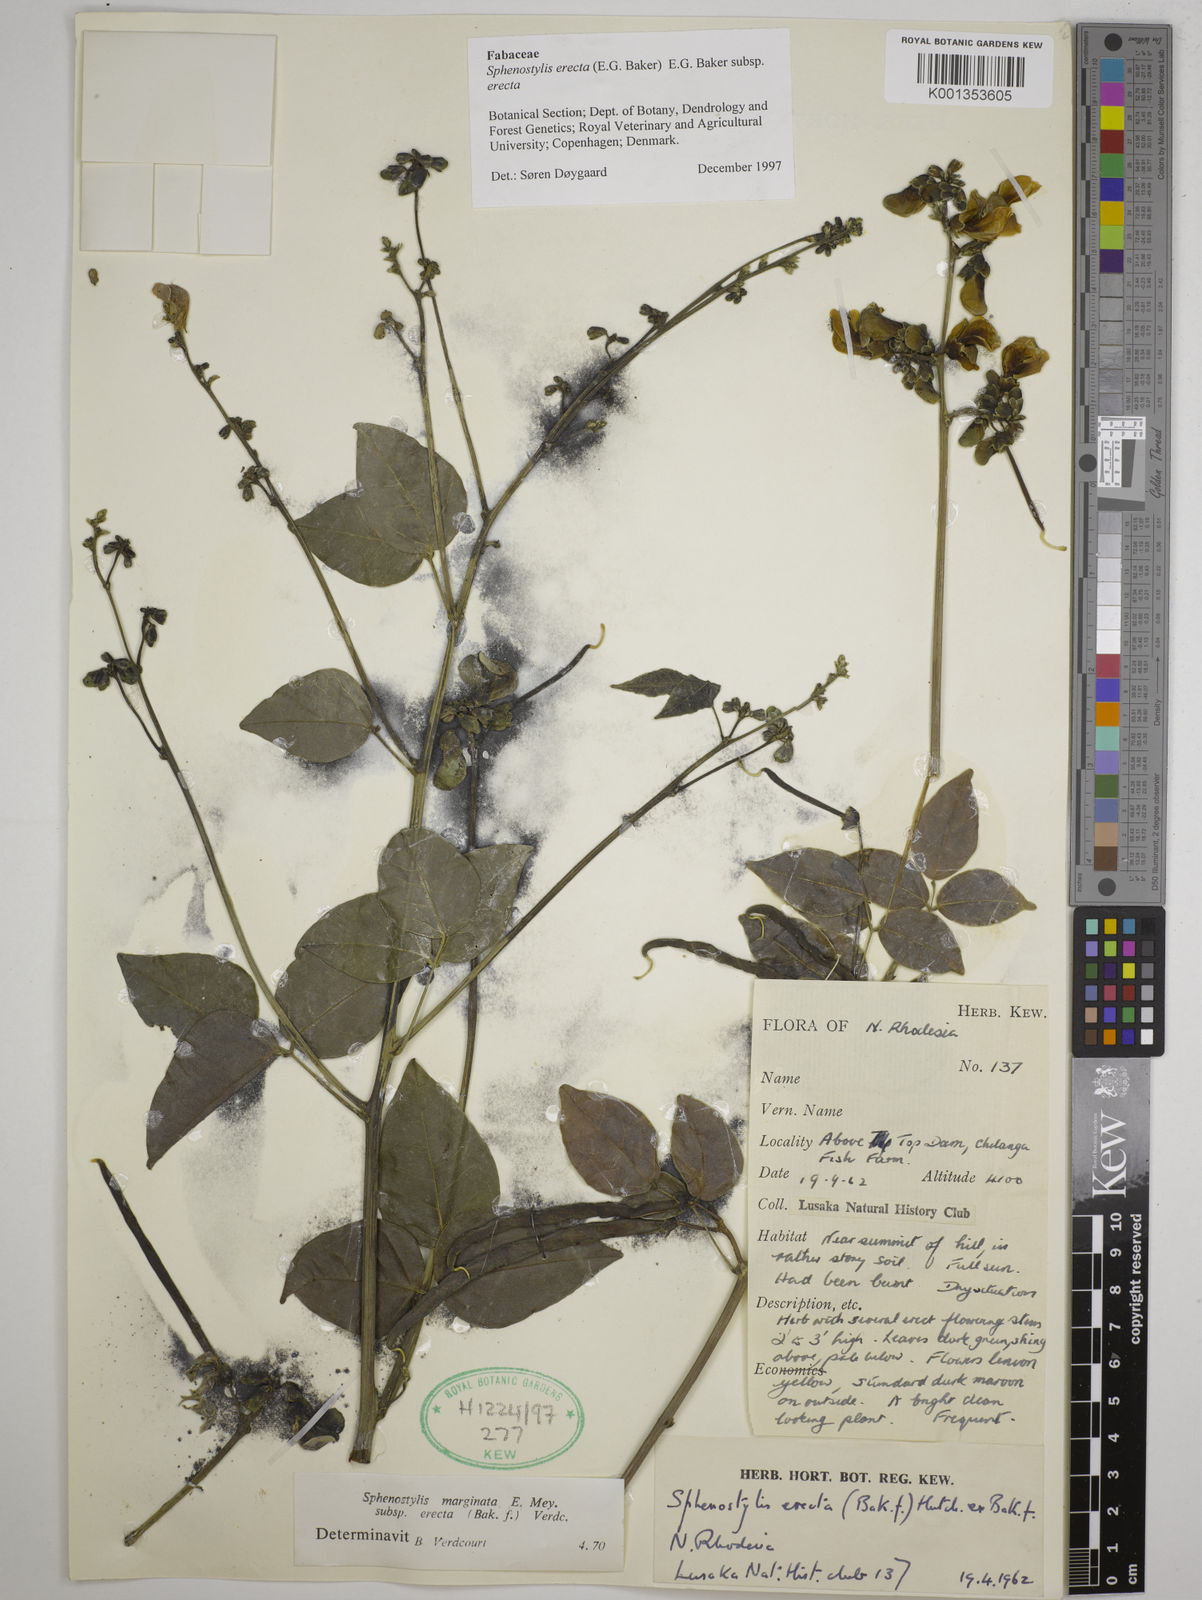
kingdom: Plantae
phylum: Tracheophyta
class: Magnoliopsida
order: Fabales
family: Fabaceae
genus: Sphenostylis
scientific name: Sphenostylis erecta
